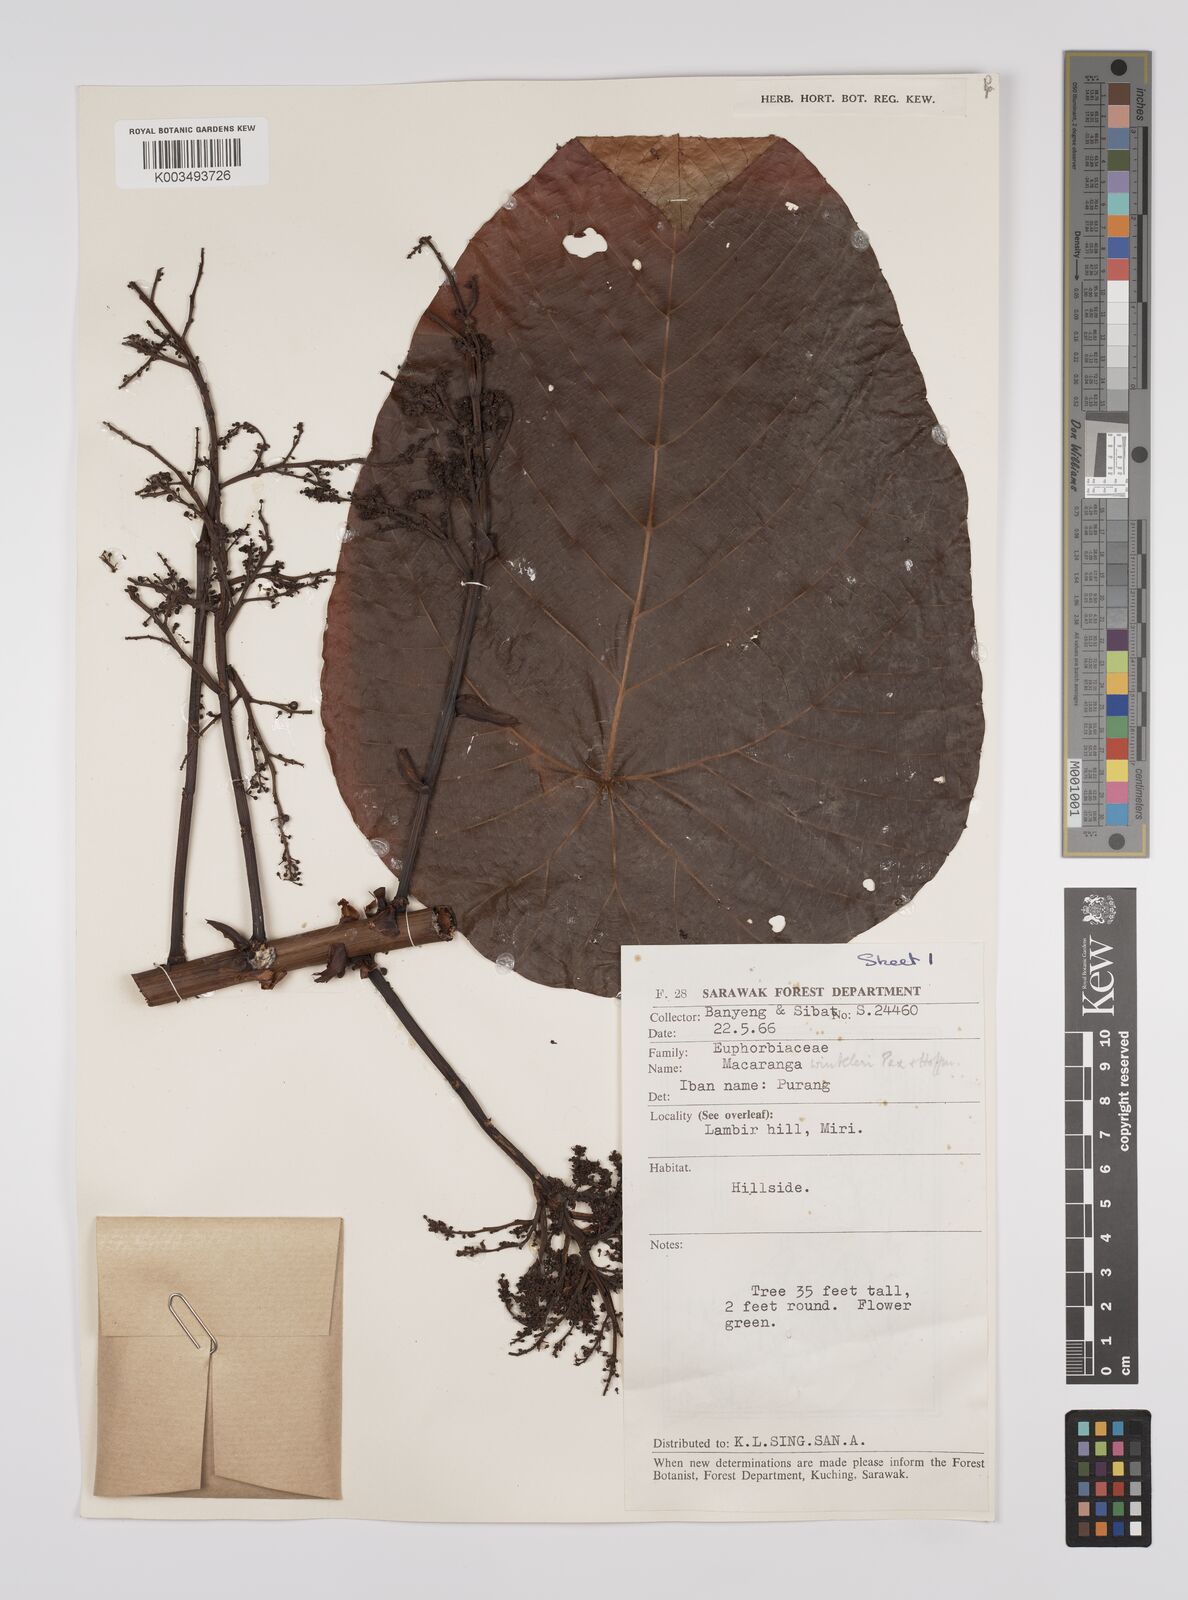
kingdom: Plantae
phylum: Tracheophyta
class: Magnoliopsida
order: Malpighiales
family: Euphorbiaceae
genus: Macaranga
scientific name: Macaranga winkleri
